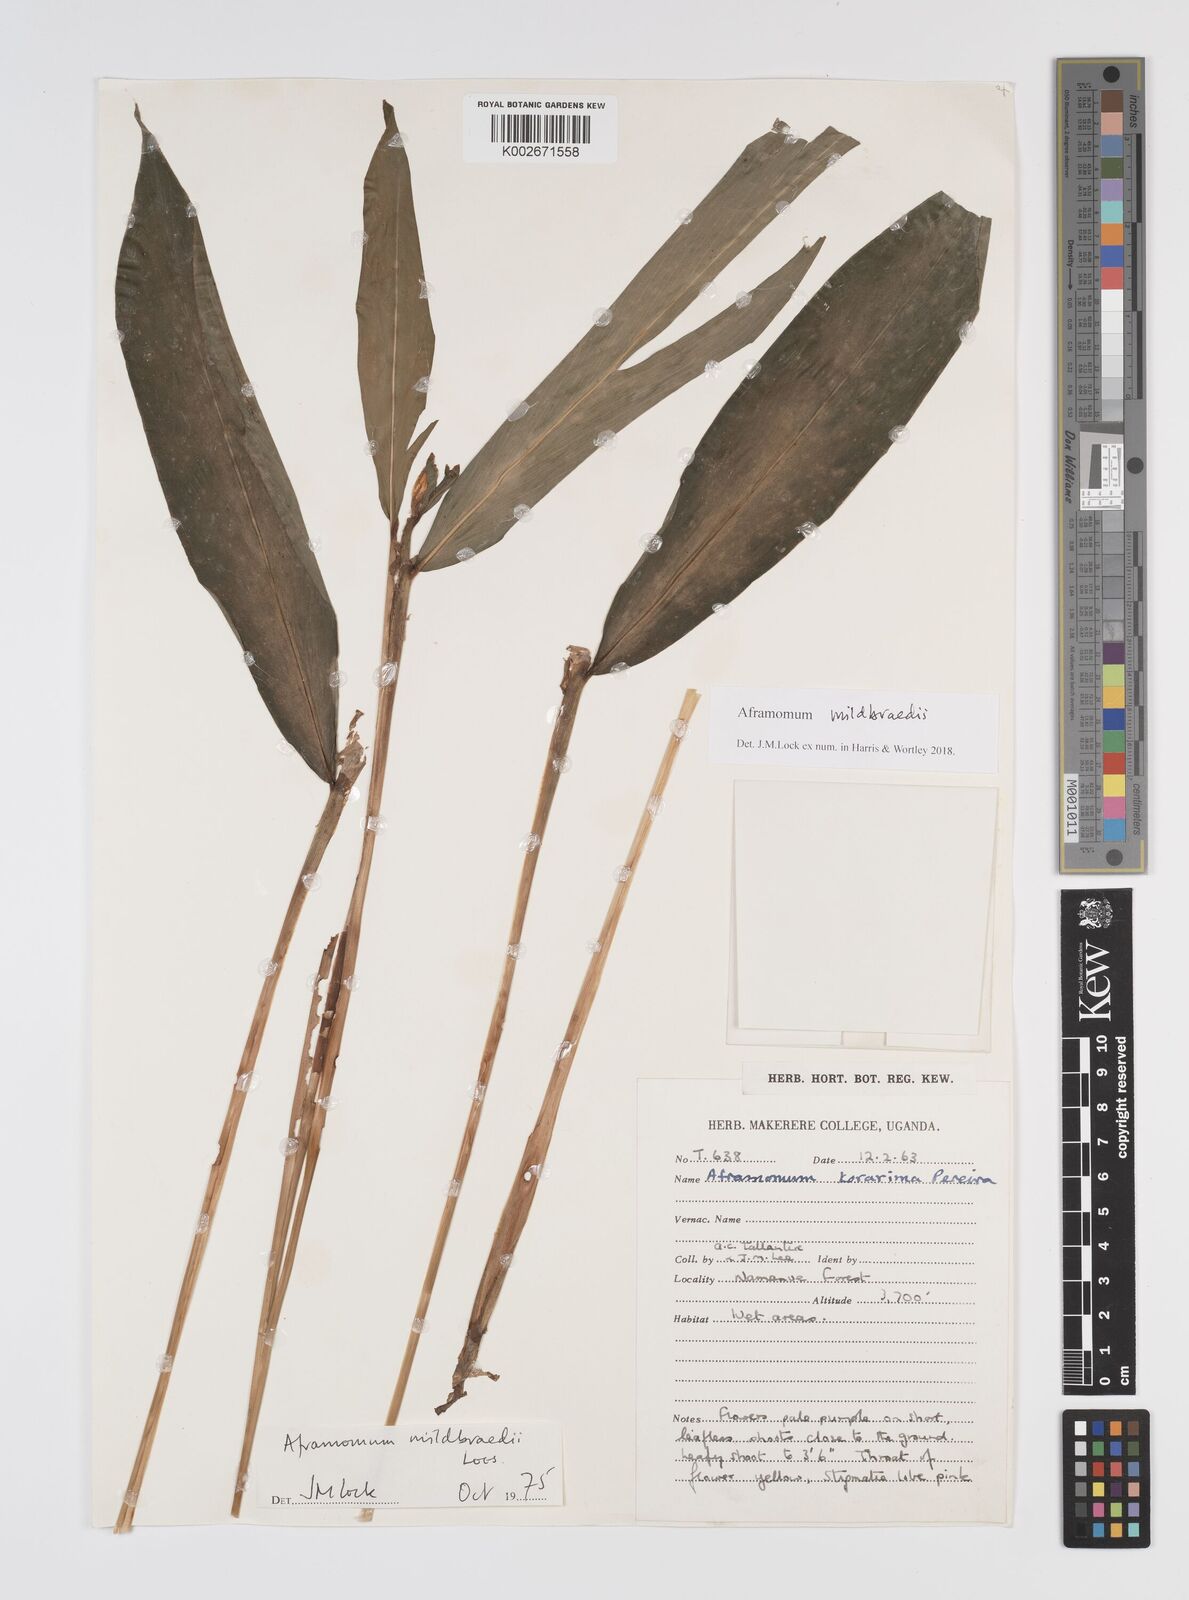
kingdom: Plantae
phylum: Tracheophyta
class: Liliopsida
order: Zingiberales
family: Zingiberaceae
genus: Aframomum
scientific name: Aframomum mildbraedii
